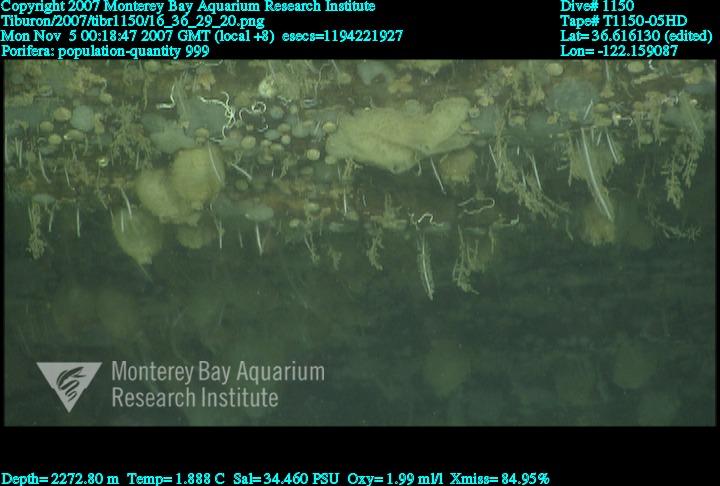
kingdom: Animalia
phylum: Porifera
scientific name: Porifera
